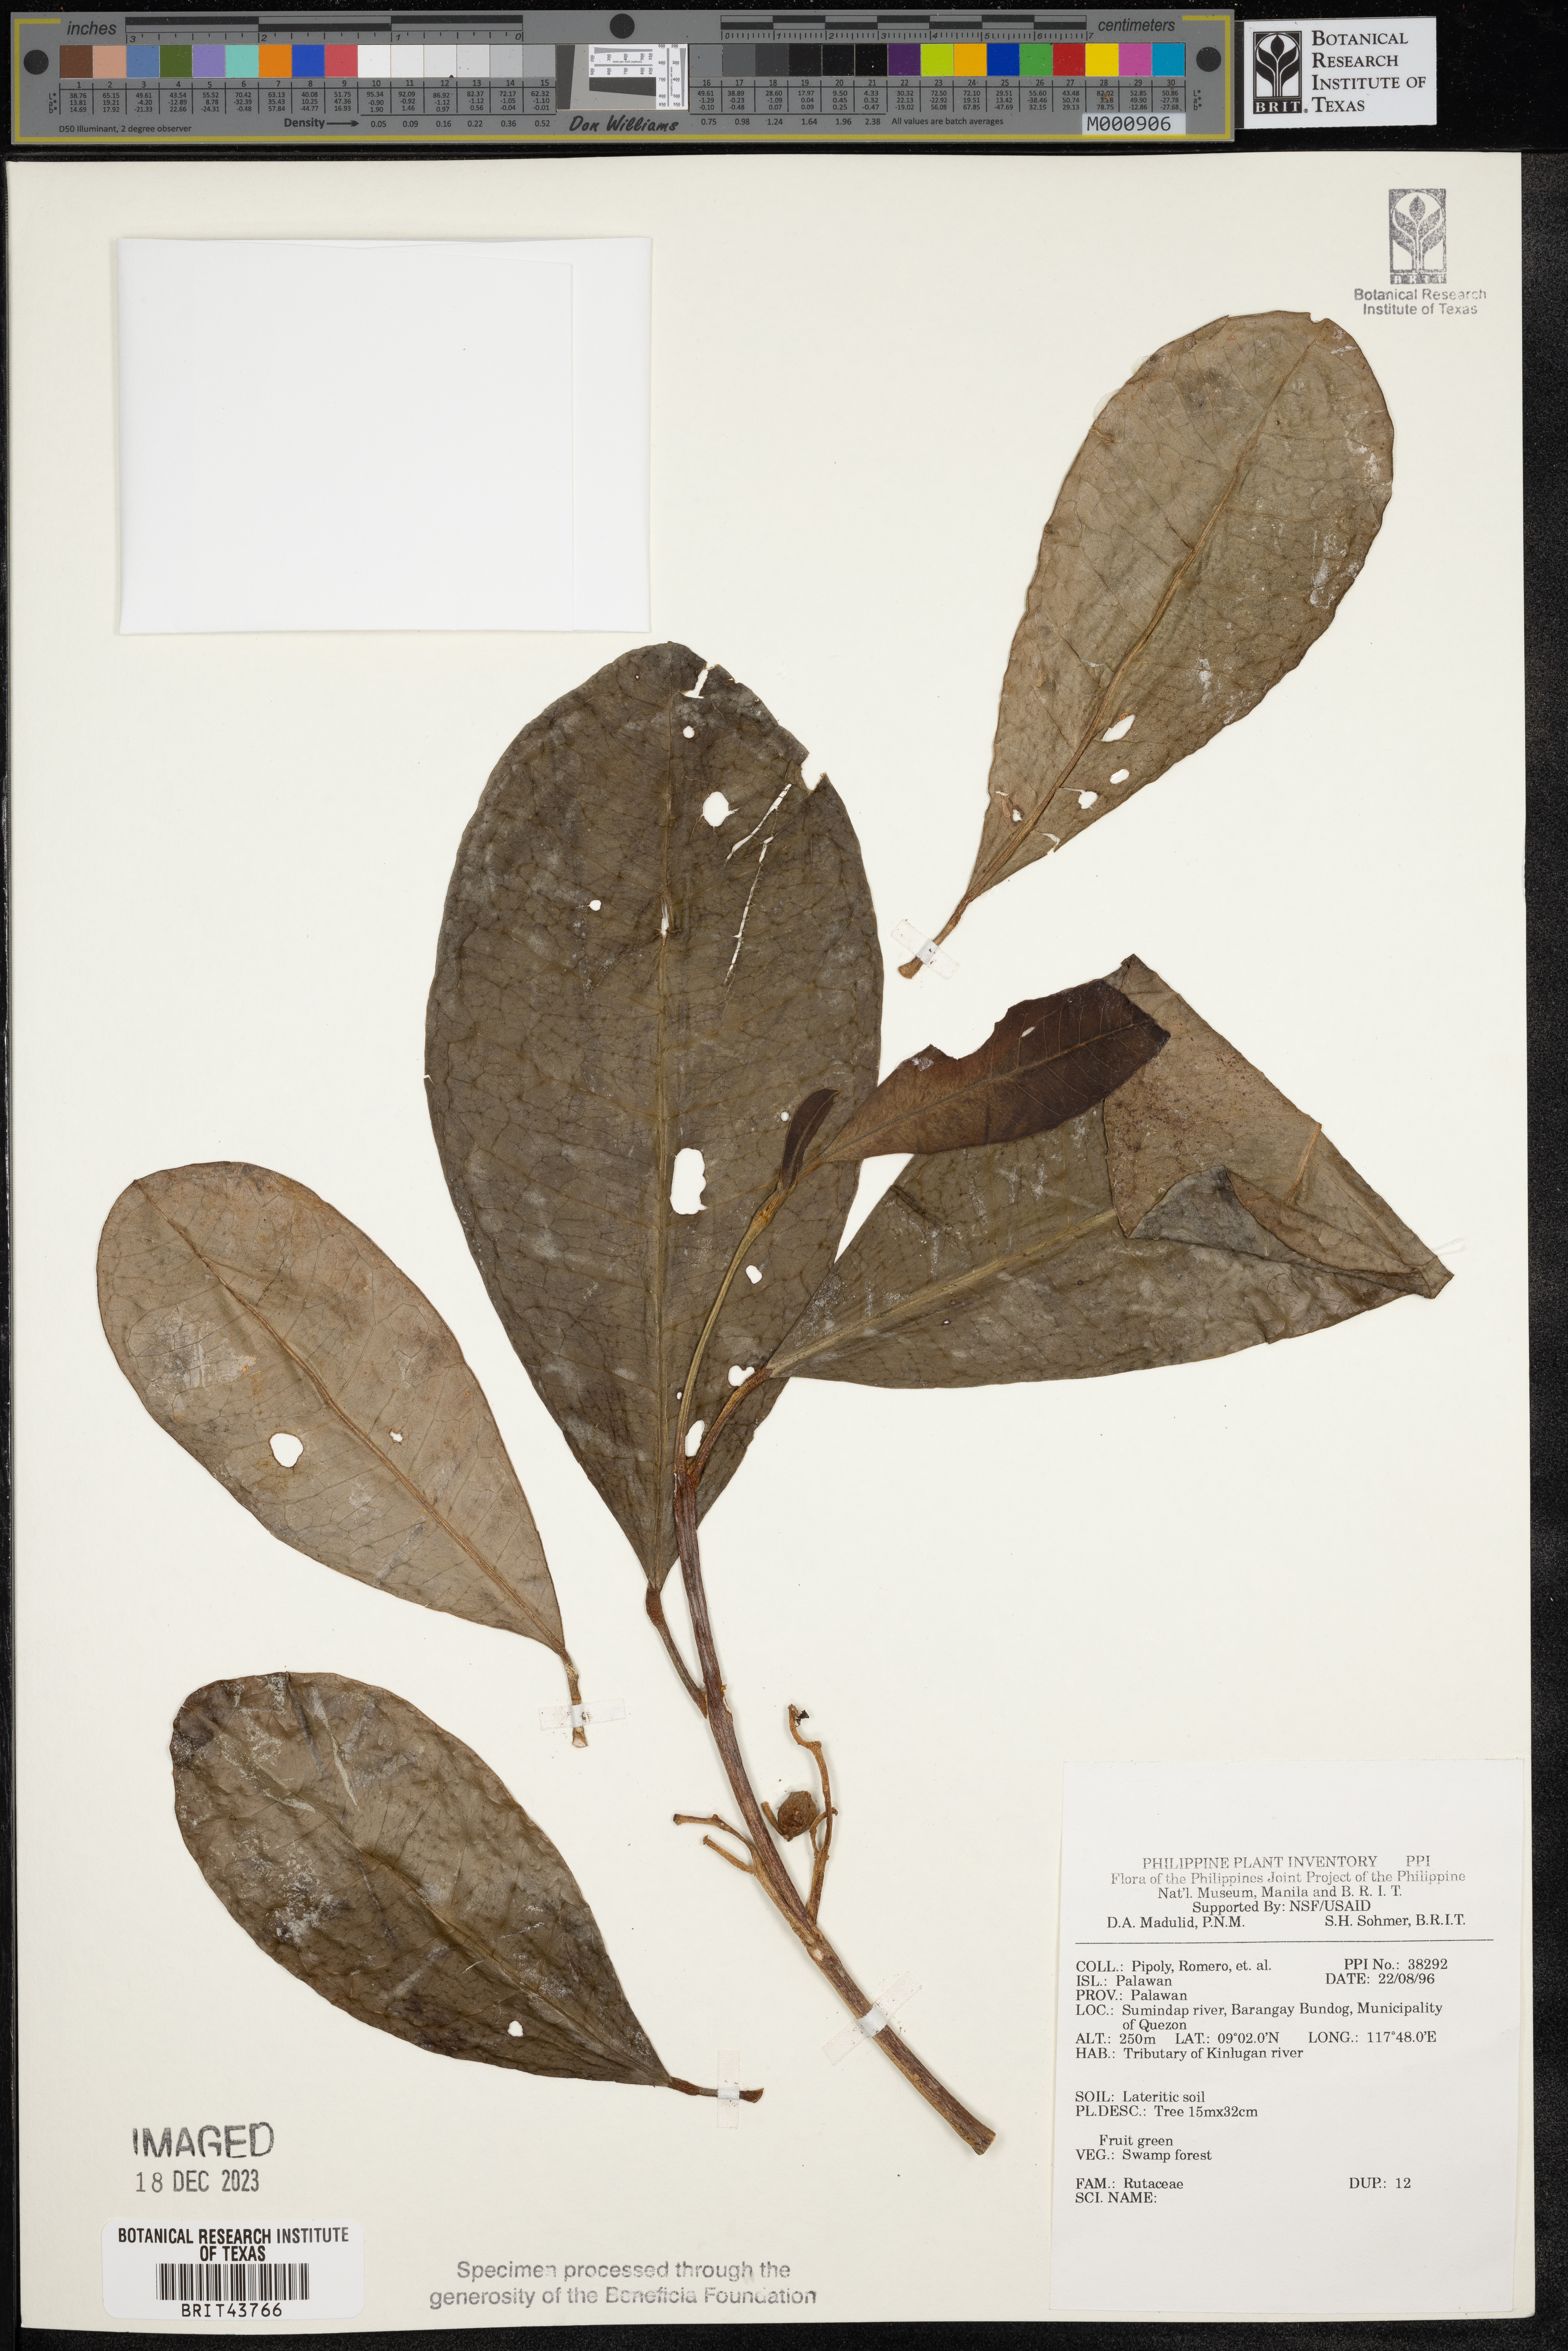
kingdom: Plantae
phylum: Tracheophyta
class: Magnoliopsida
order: Sapindales
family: Rutaceae
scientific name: Rutaceae
